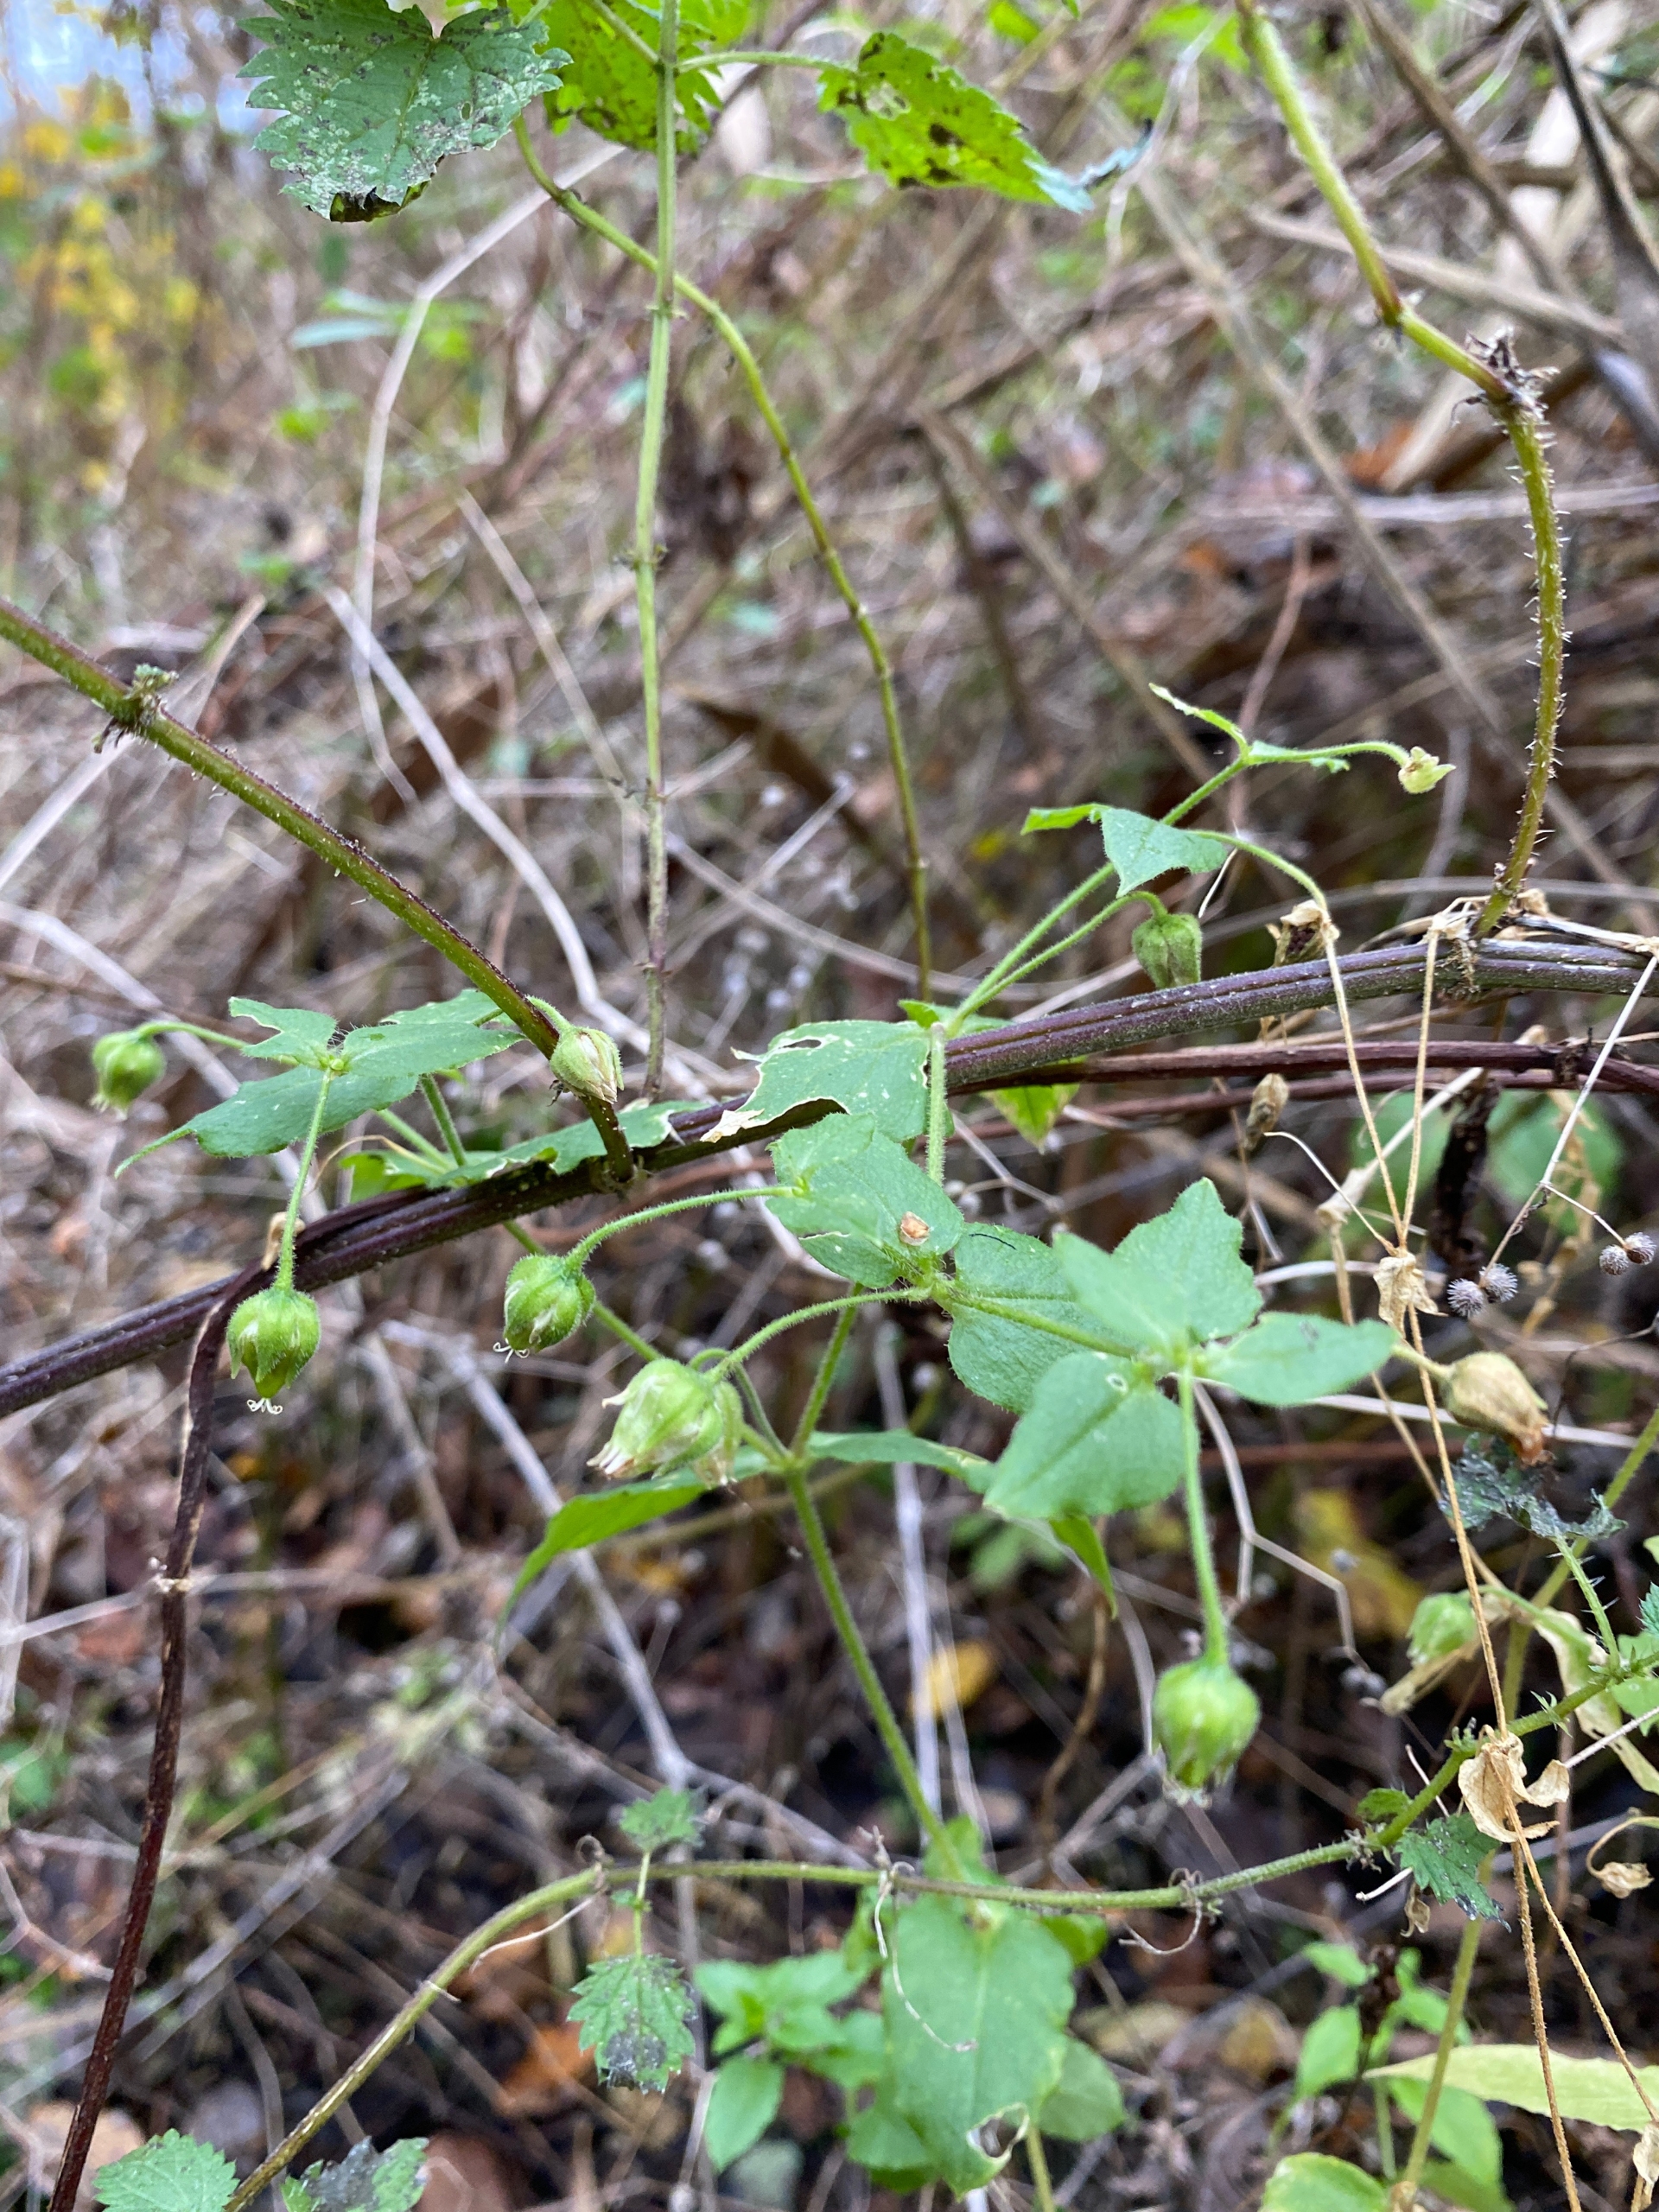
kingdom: Plantae
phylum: Tracheophyta
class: Magnoliopsida
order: Caryophyllales
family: Caryophyllaceae
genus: Stellaria
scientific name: Stellaria aquatica
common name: Kløvkrone
